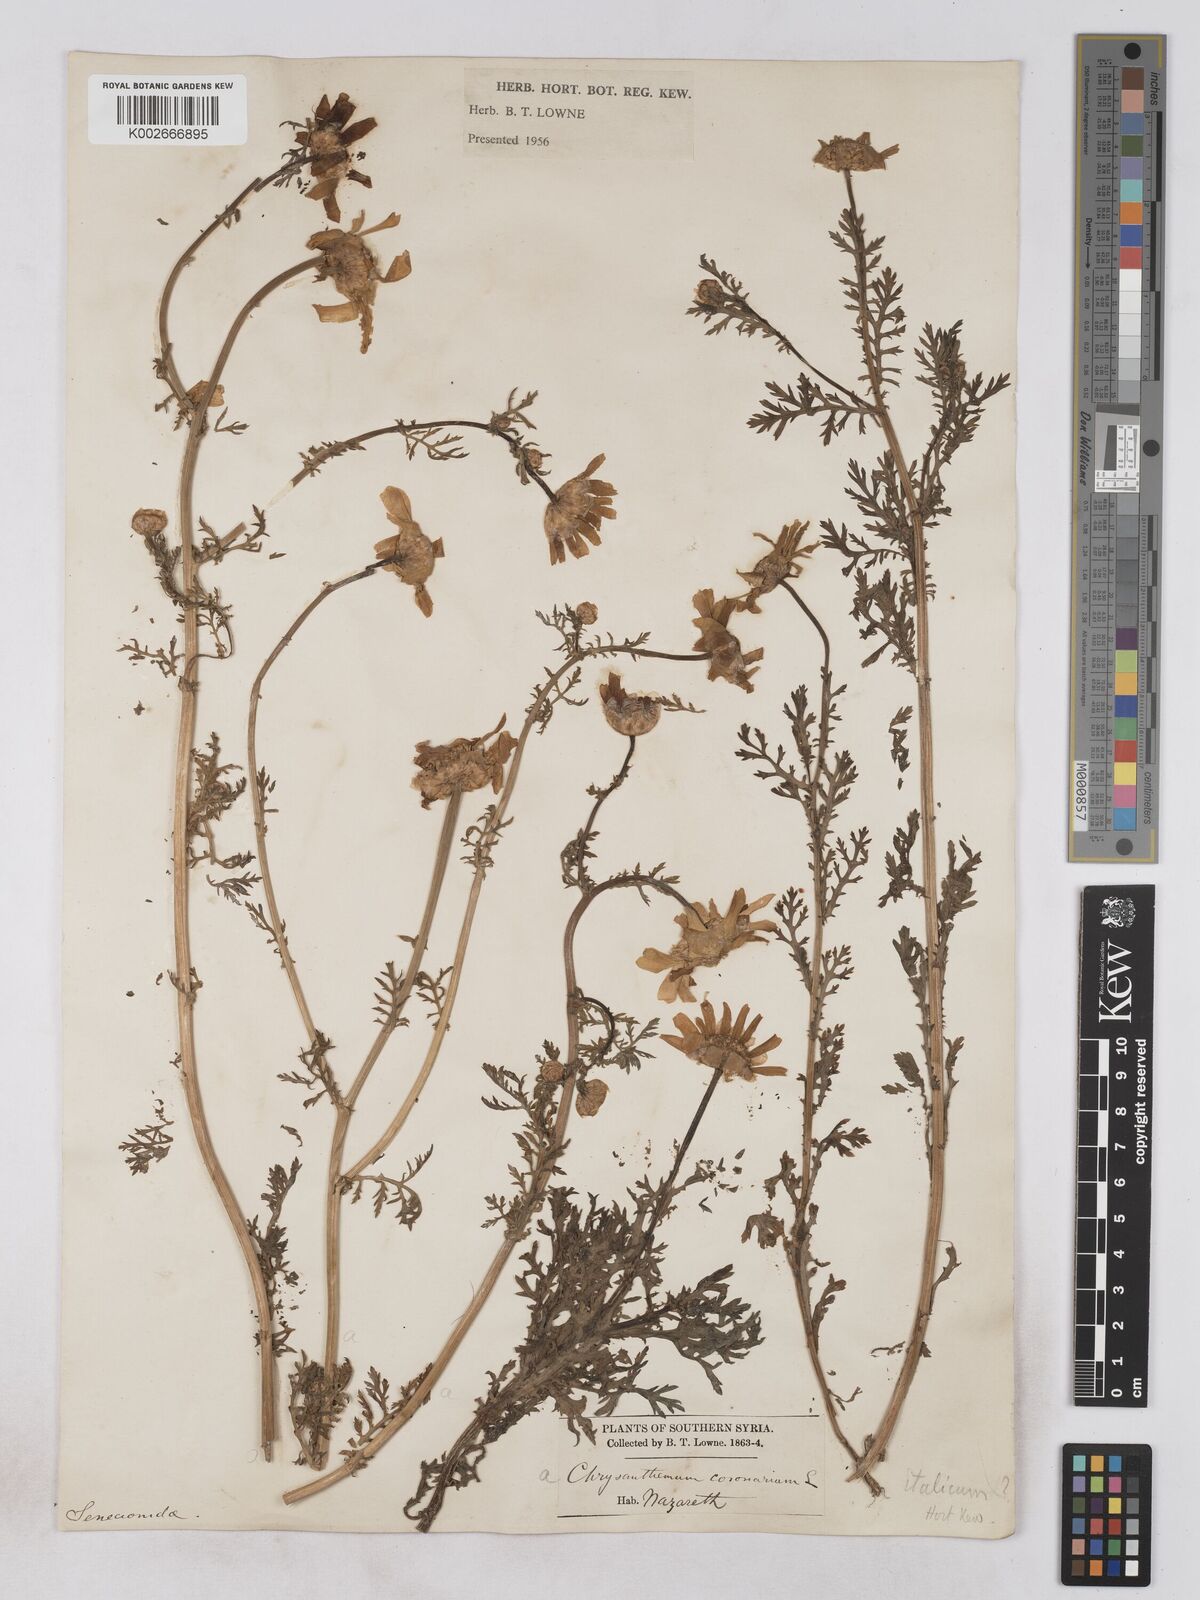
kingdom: Plantae
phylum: Tracheophyta
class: Magnoliopsida
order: Asterales
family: Asteraceae
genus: Glebionis
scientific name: Glebionis coronaria
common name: Crowndaisy
